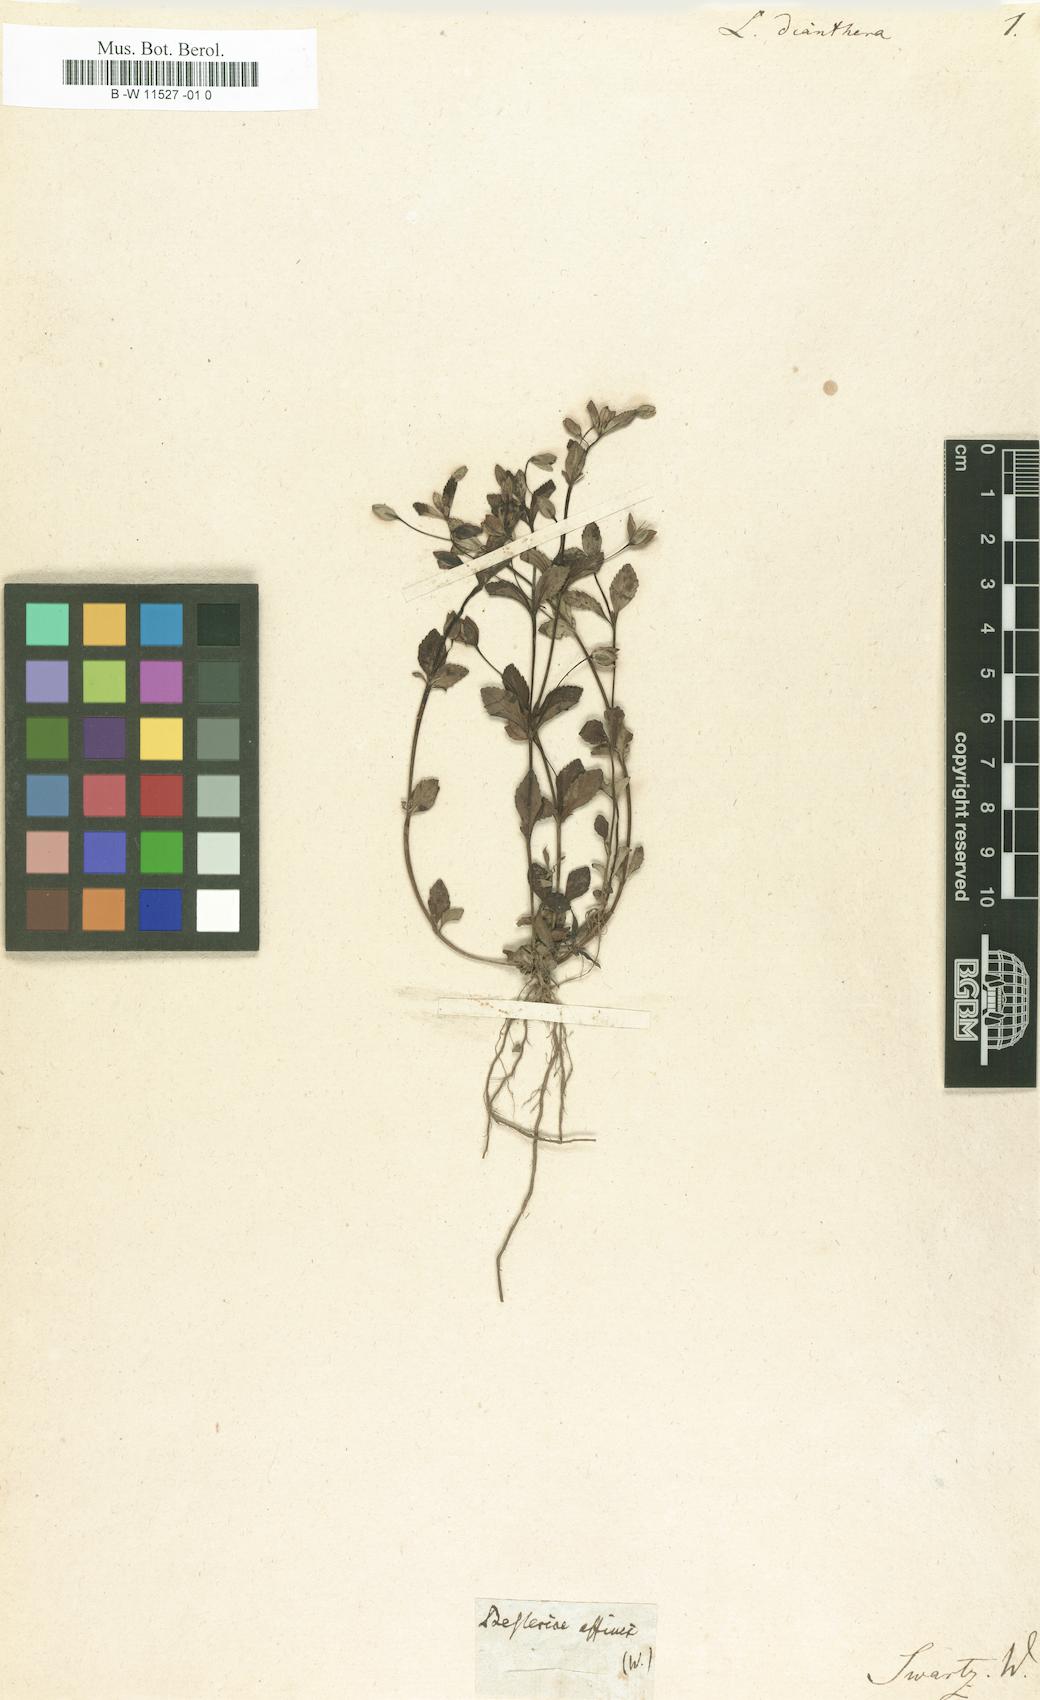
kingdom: Plantae
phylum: Tracheophyta
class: Magnoliopsida
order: Lamiales
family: Plantaginaceae
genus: Mecardonia
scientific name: Mecardonia procumbens
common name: Baby jump-up
